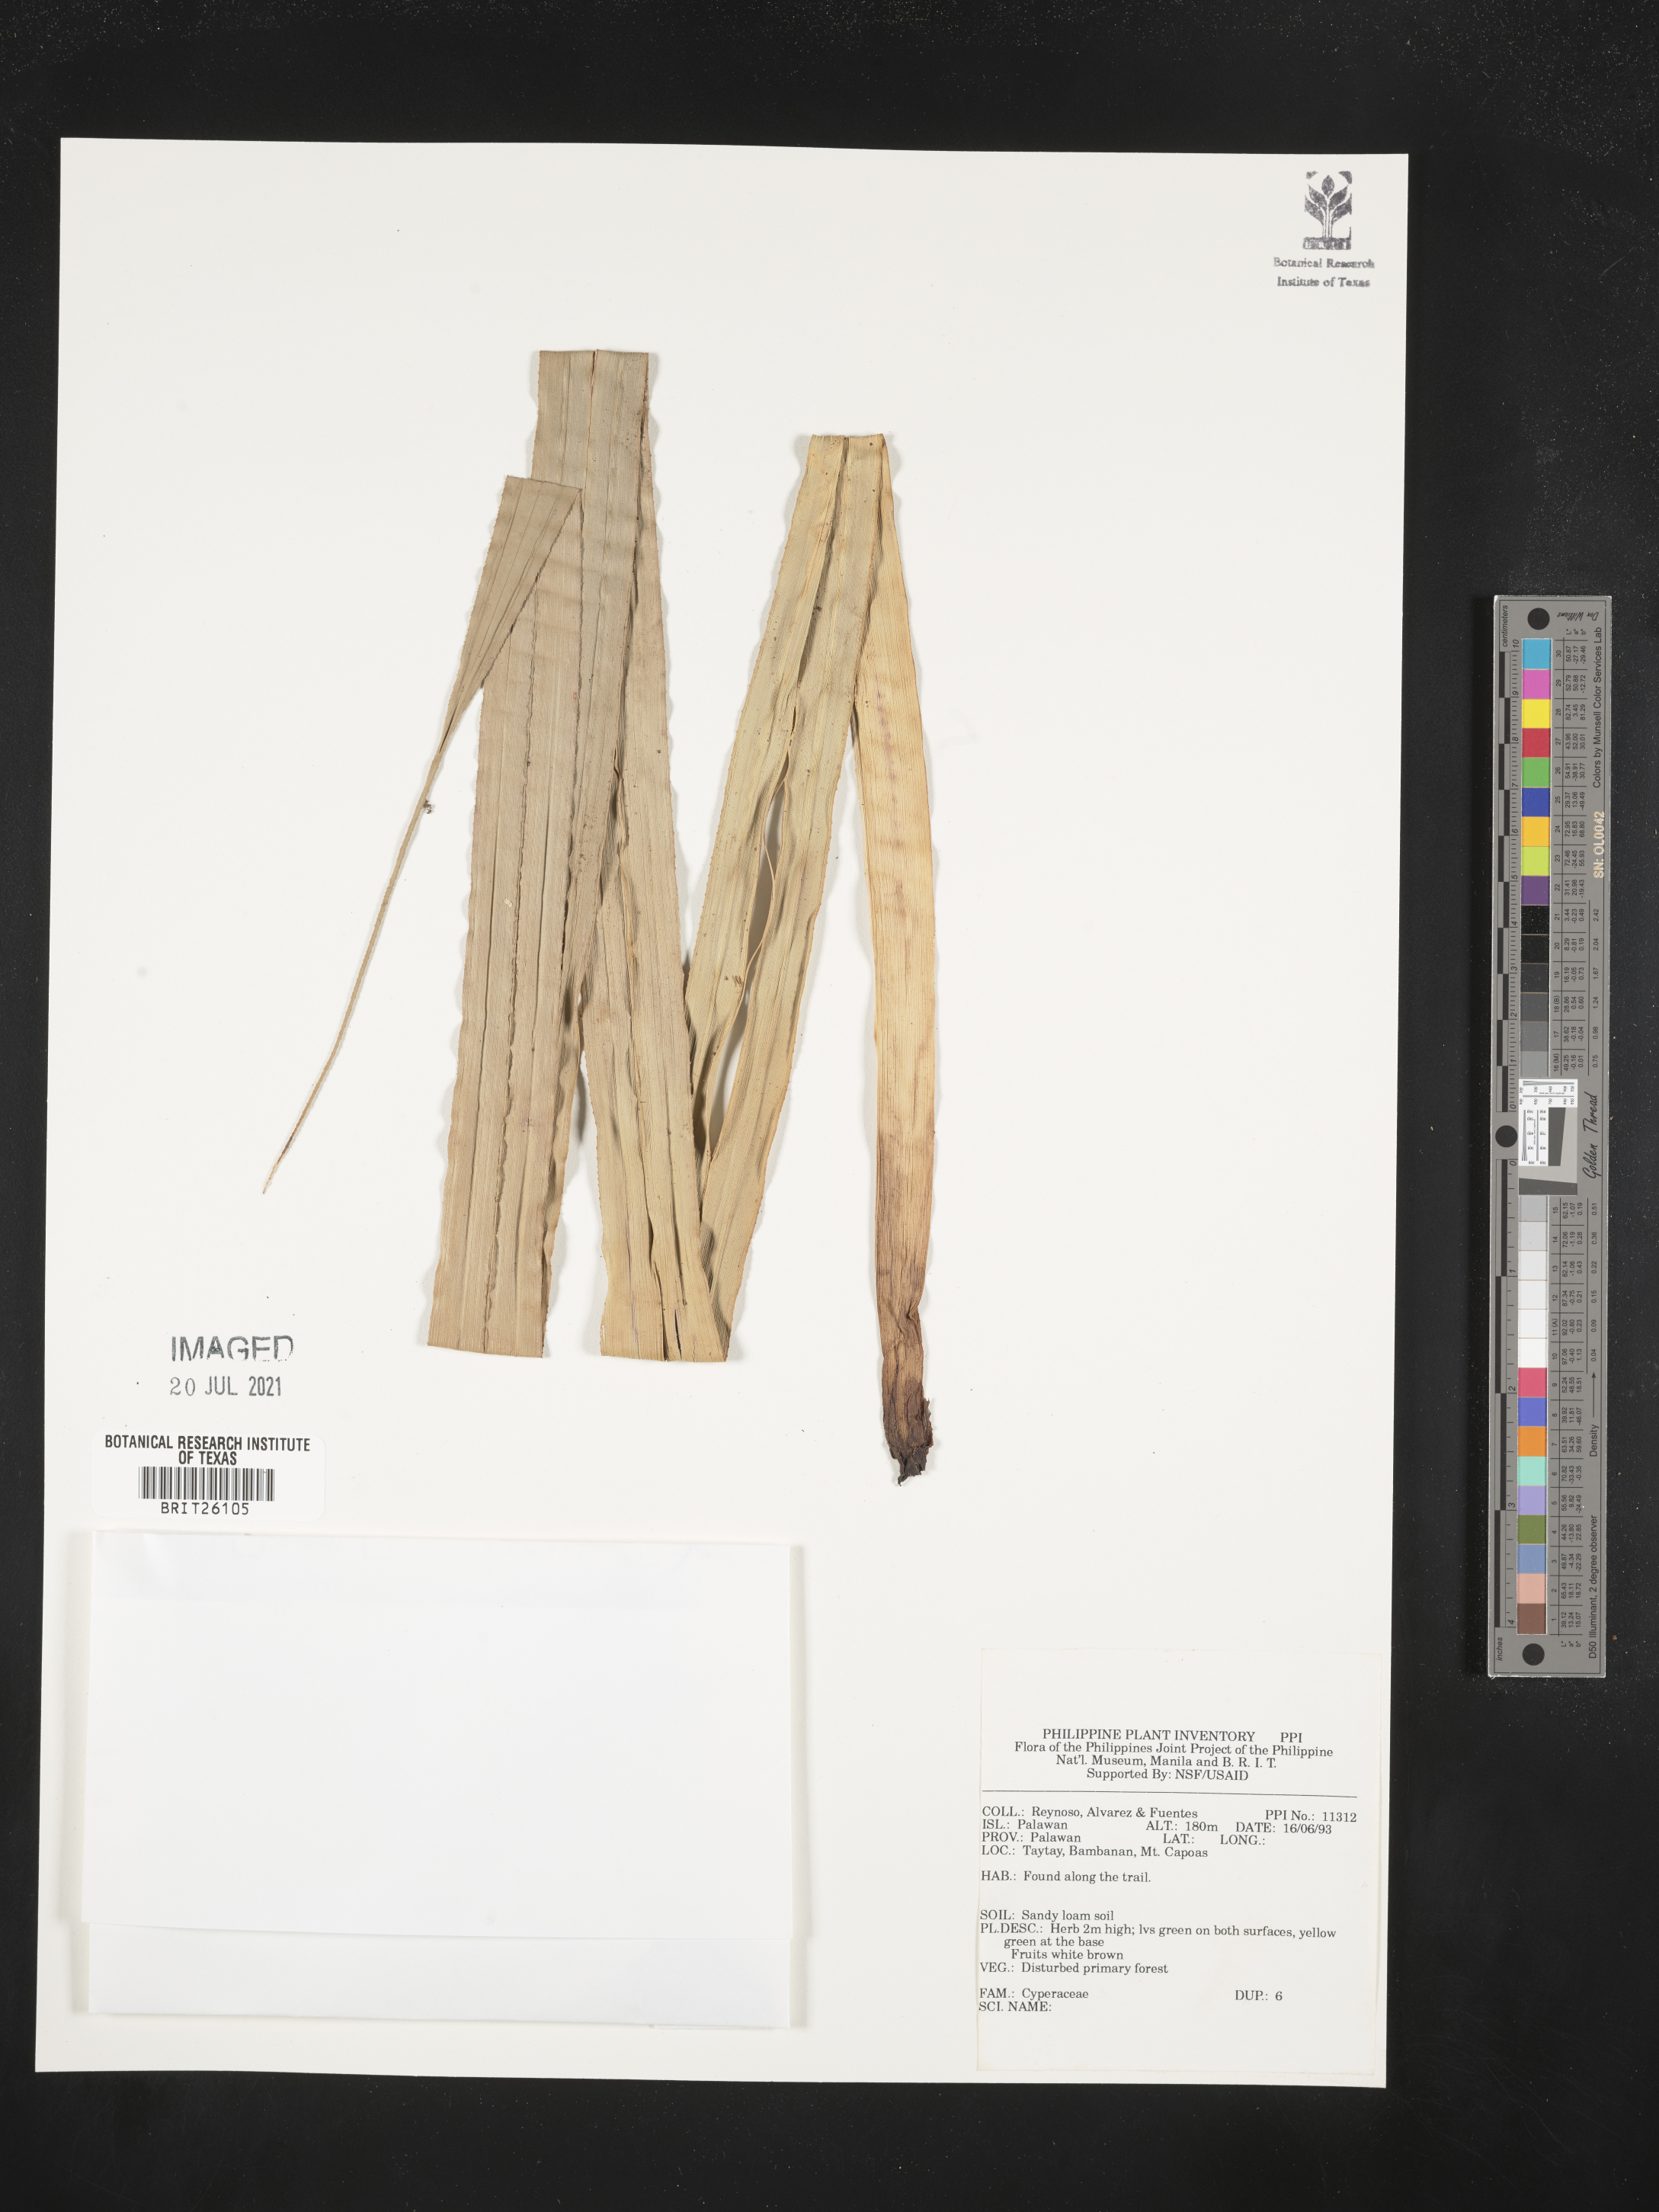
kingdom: Plantae
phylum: Tracheophyta
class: Liliopsida
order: Poales
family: Cyperaceae
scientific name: Cyperaceae
